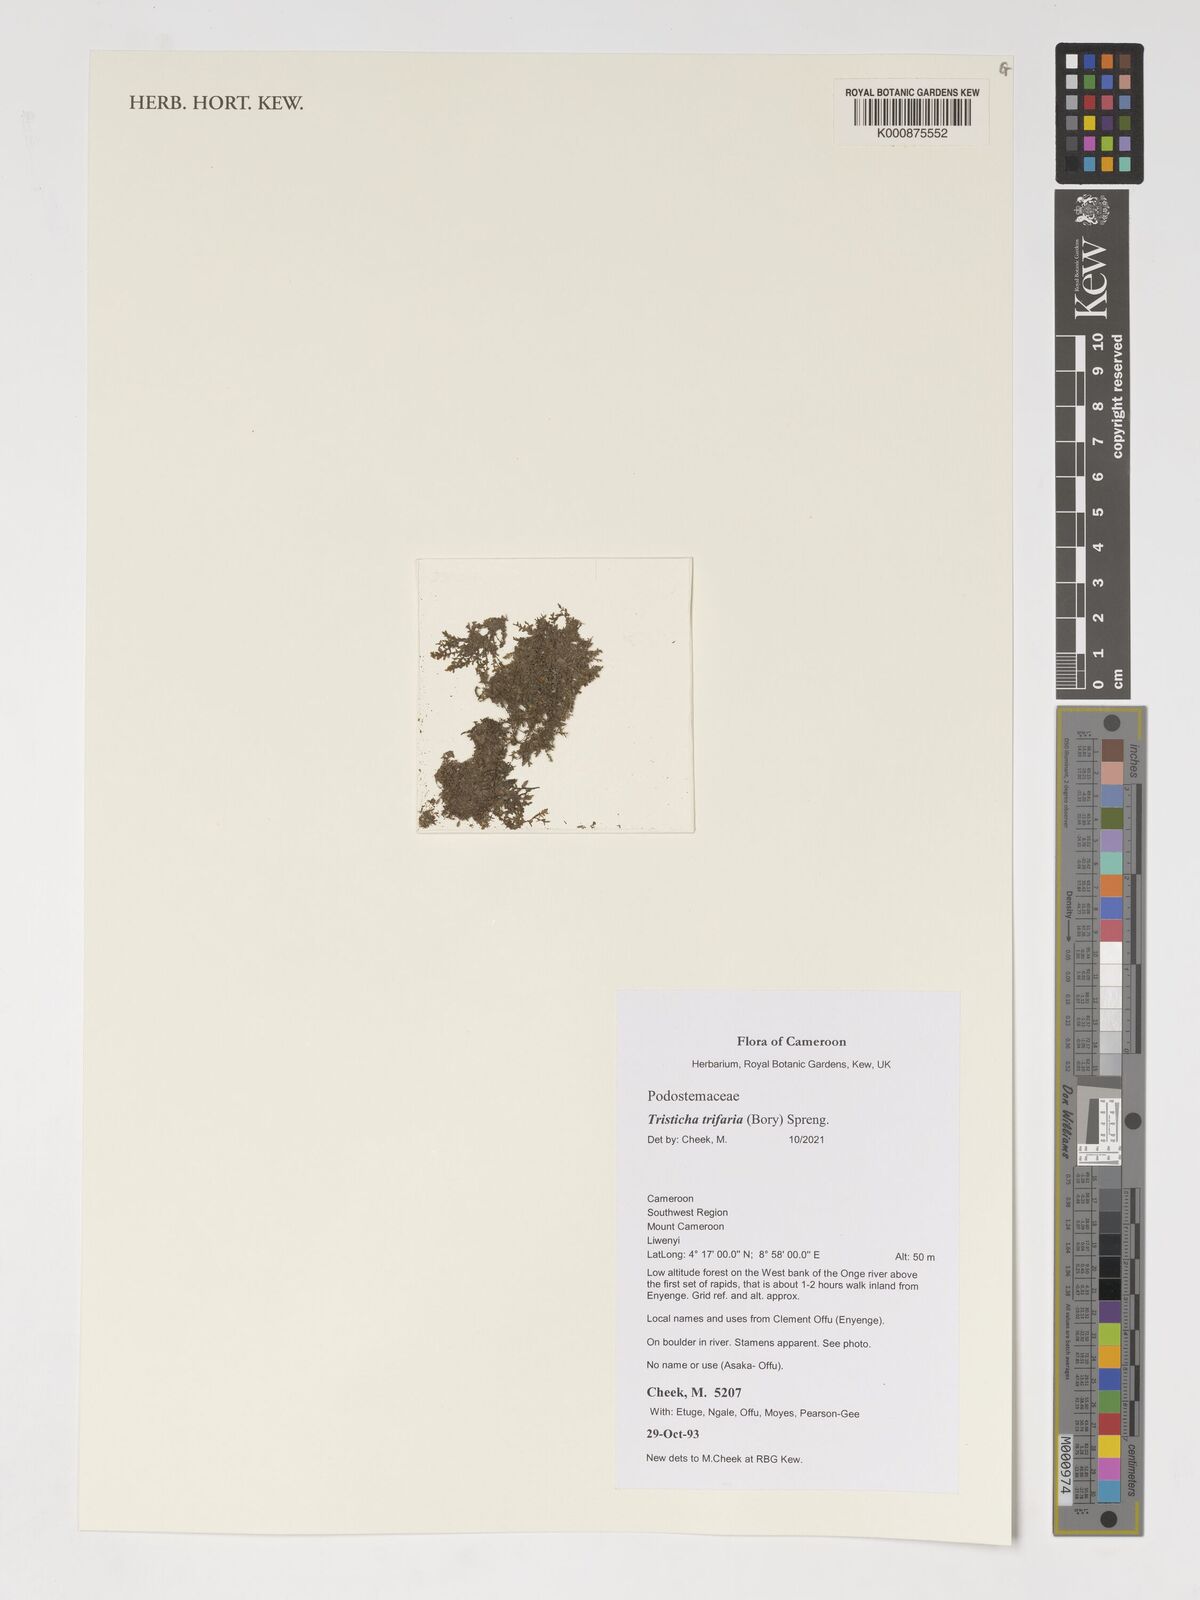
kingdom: Plantae
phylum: Tracheophyta
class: Magnoliopsida
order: Malpighiales
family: Podostemaceae
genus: Tristicha
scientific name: Tristicha trifaria
